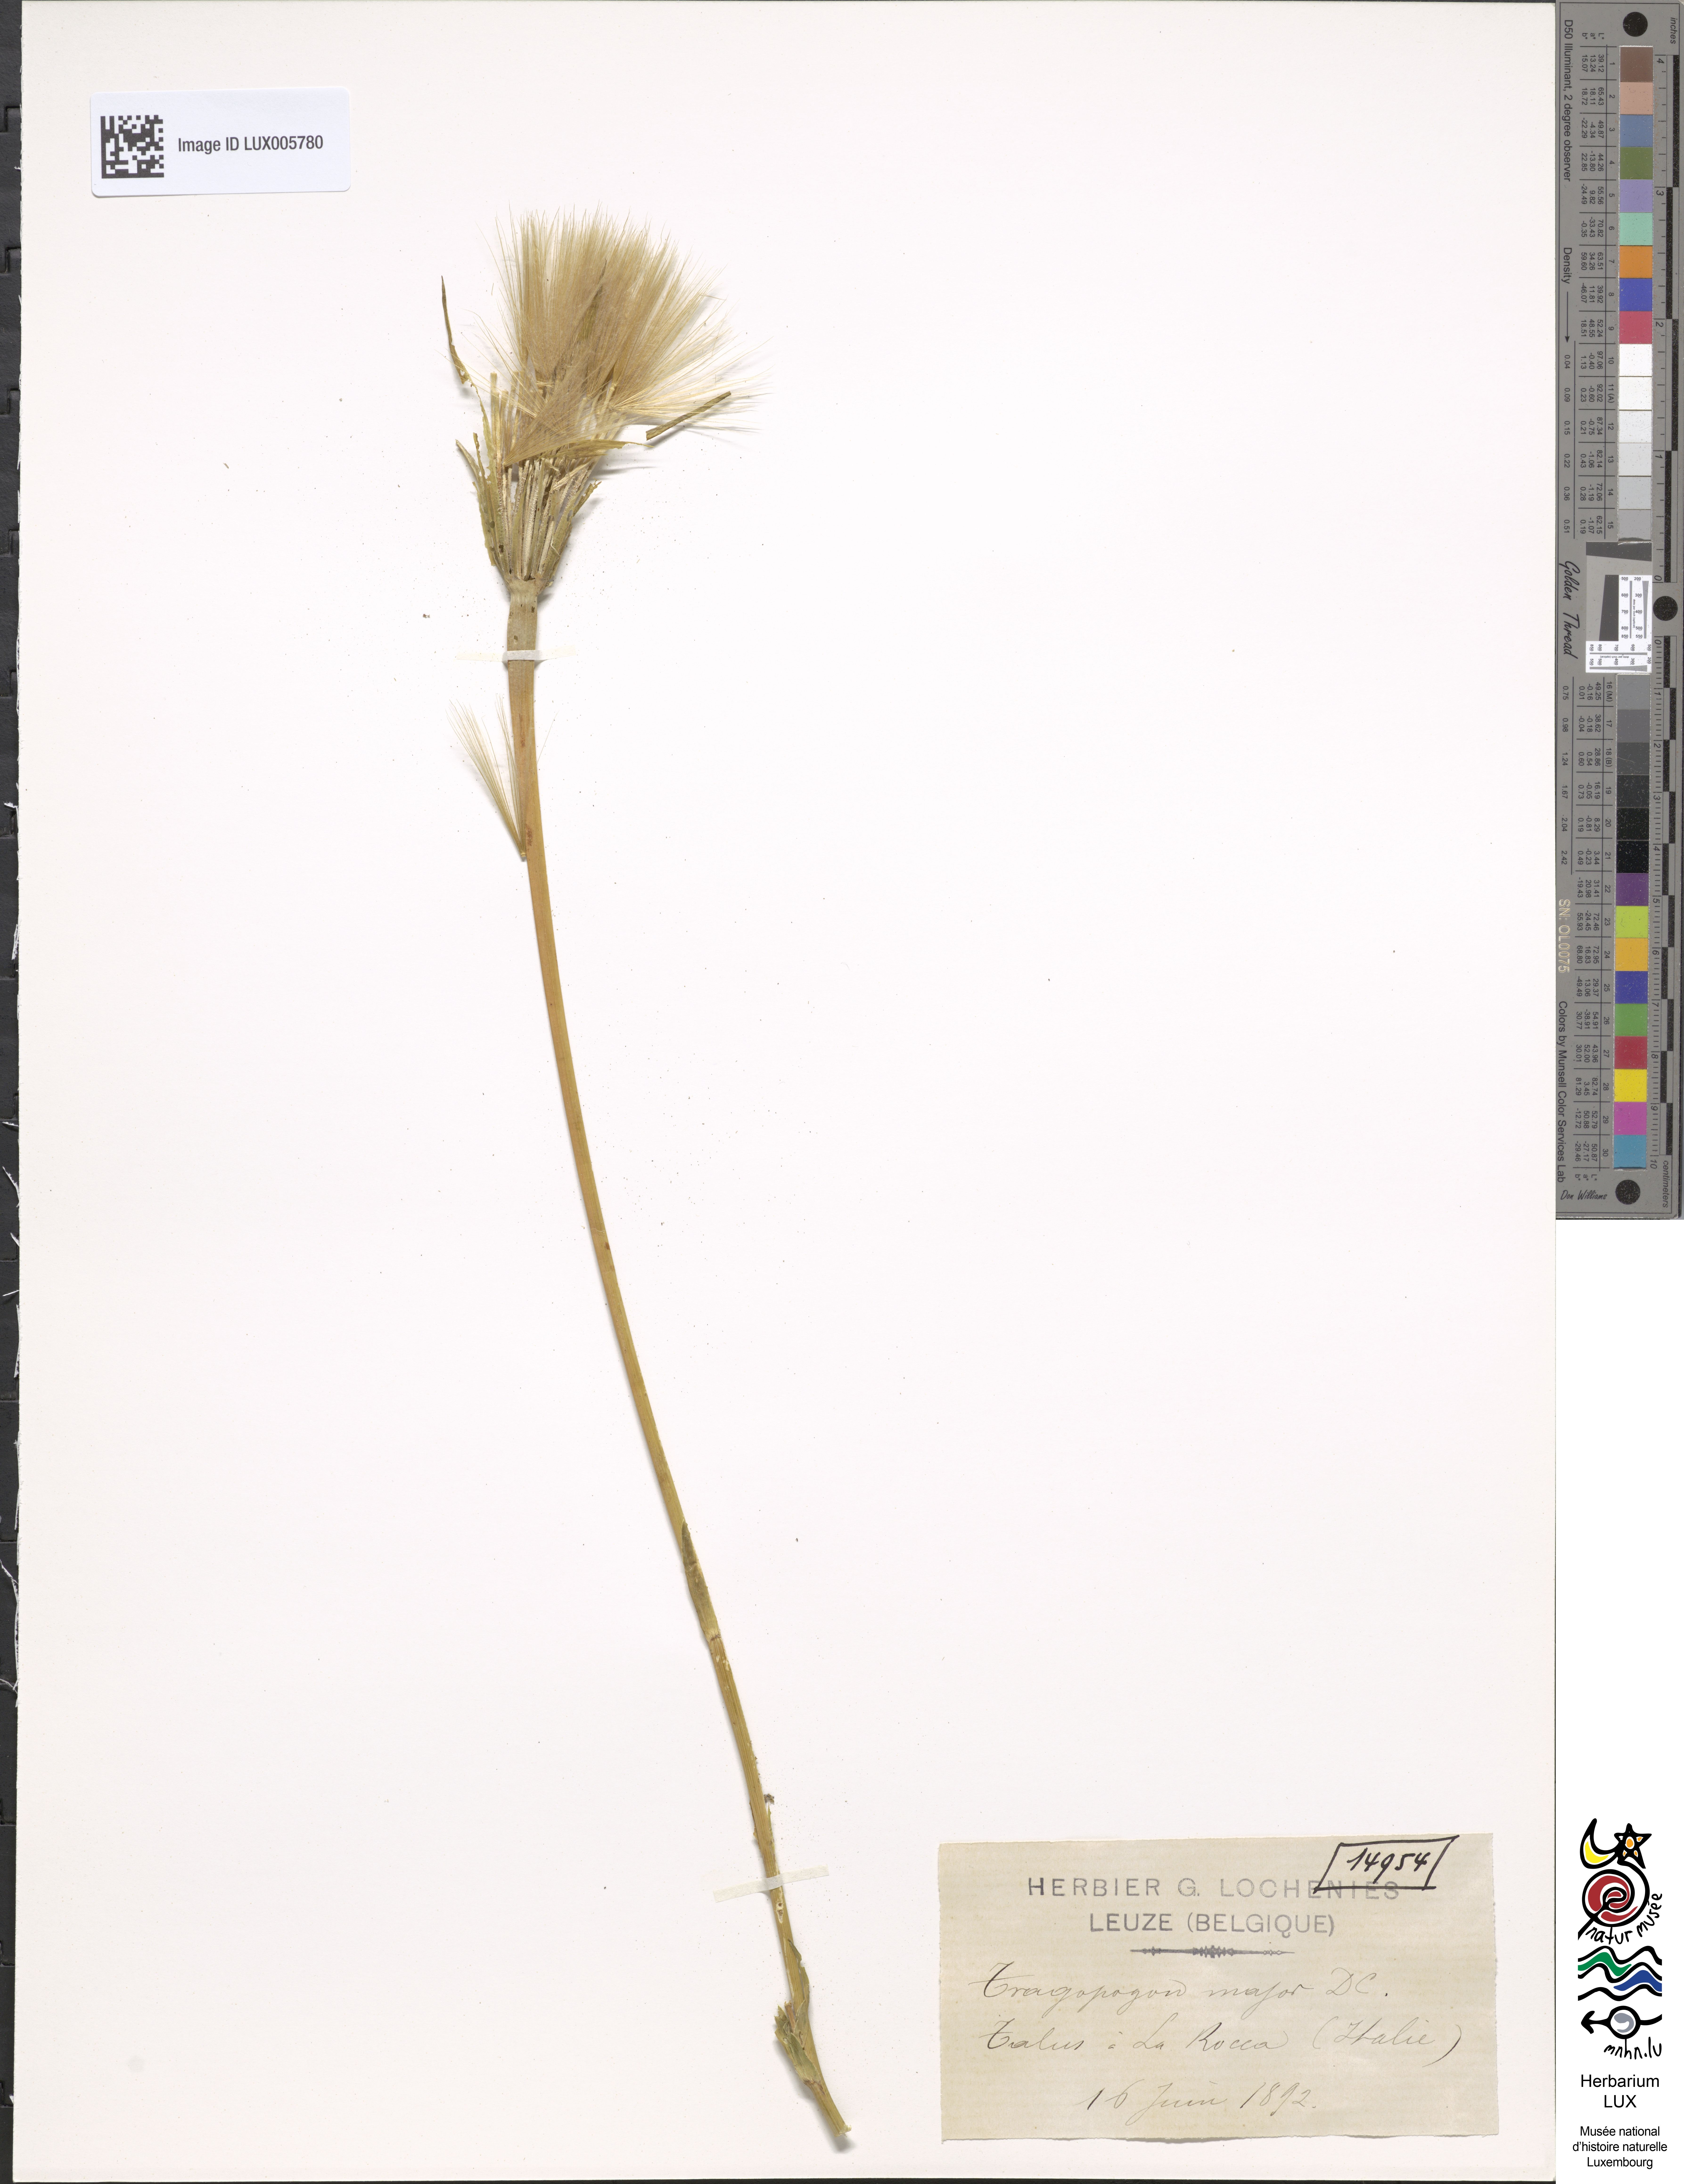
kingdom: Plantae
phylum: Tracheophyta
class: Magnoliopsida
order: Asterales
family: Asteraceae
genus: Tragopogon
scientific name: Tragopogon dubius
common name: Yellow salsify
